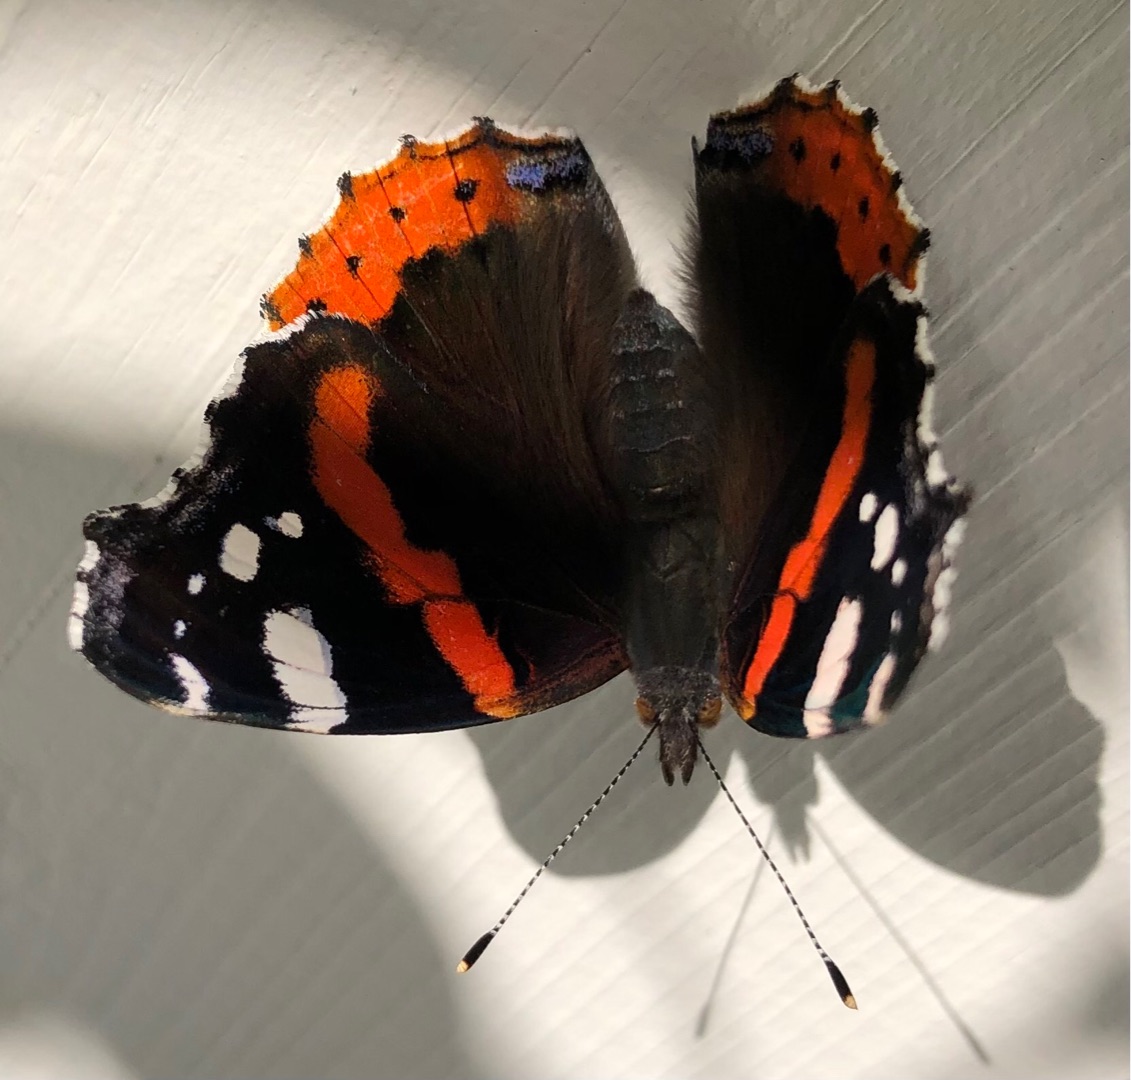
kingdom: Animalia
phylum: Arthropoda
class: Insecta
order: Lepidoptera
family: Nymphalidae
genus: Vanessa
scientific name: Vanessa atalanta
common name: Admiral
